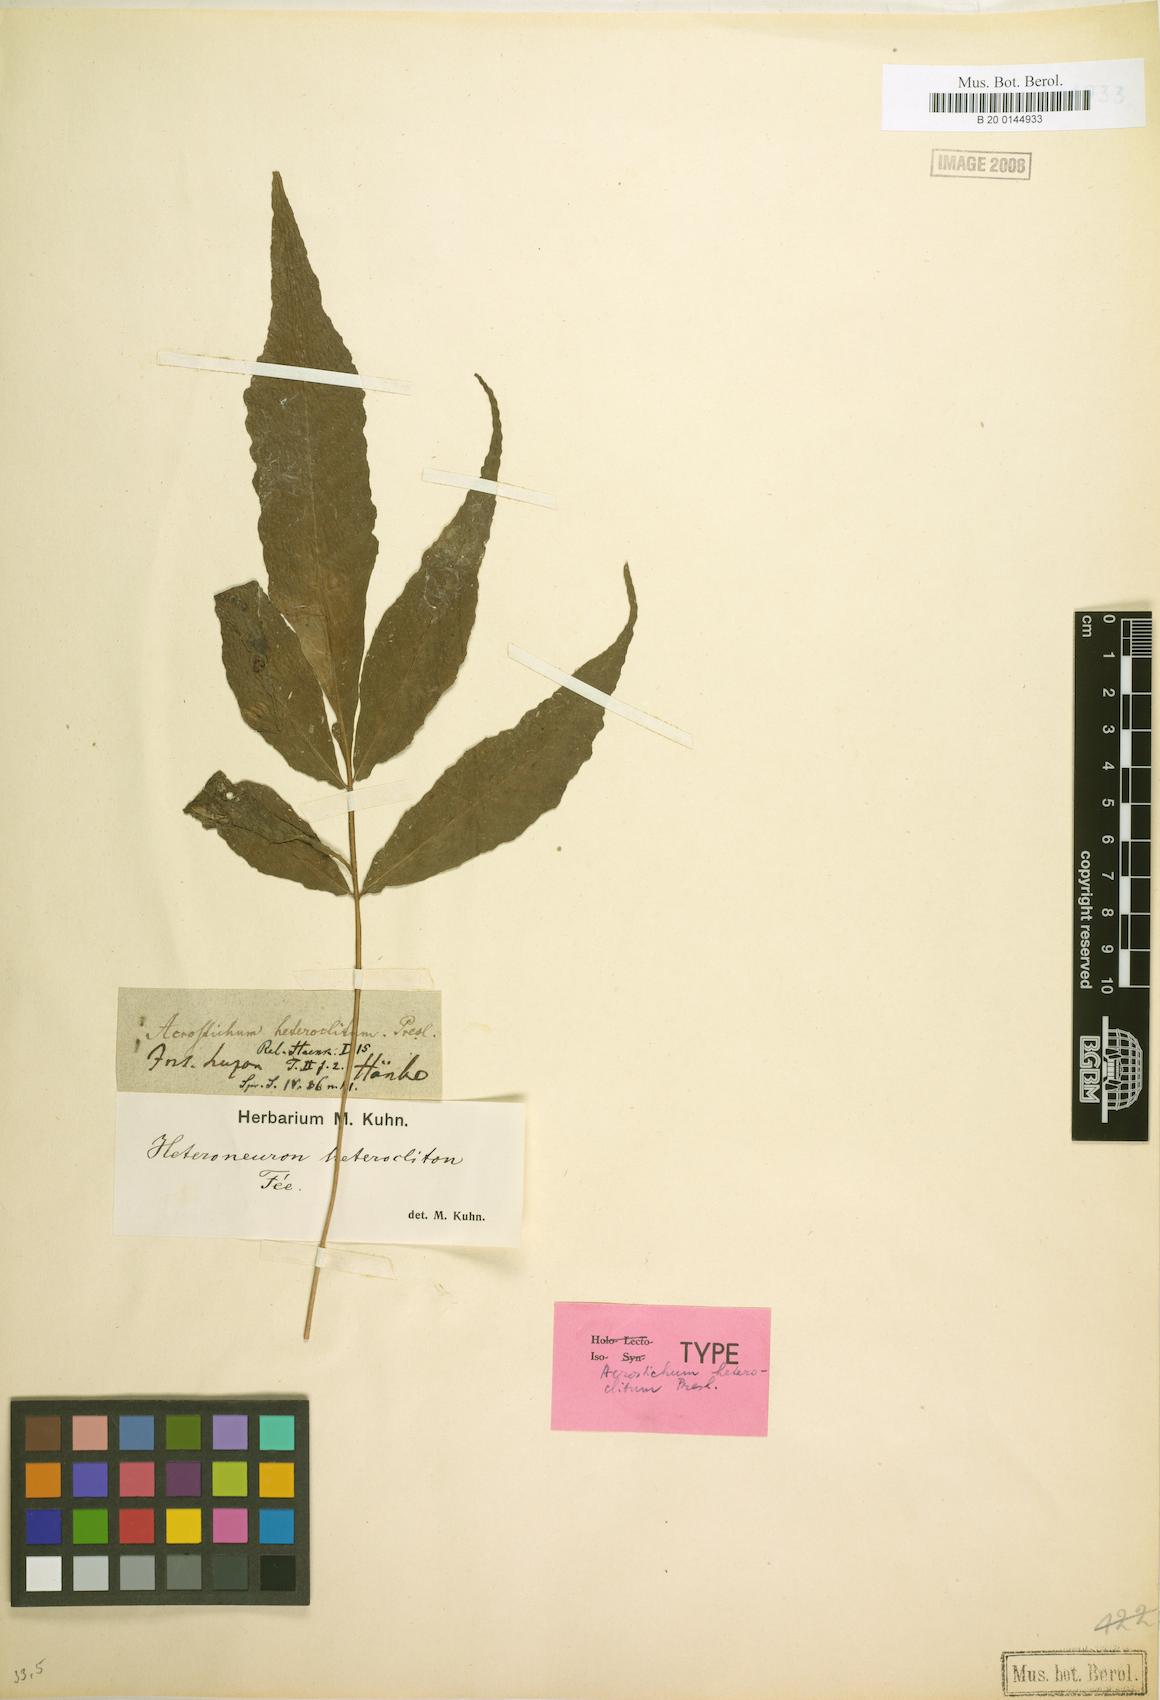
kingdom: Plantae
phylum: Tracheophyta
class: Polypodiopsida
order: Polypodiales
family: Dryopteridaceae
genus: Bolbitis
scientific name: Bolbitis heteroclita
